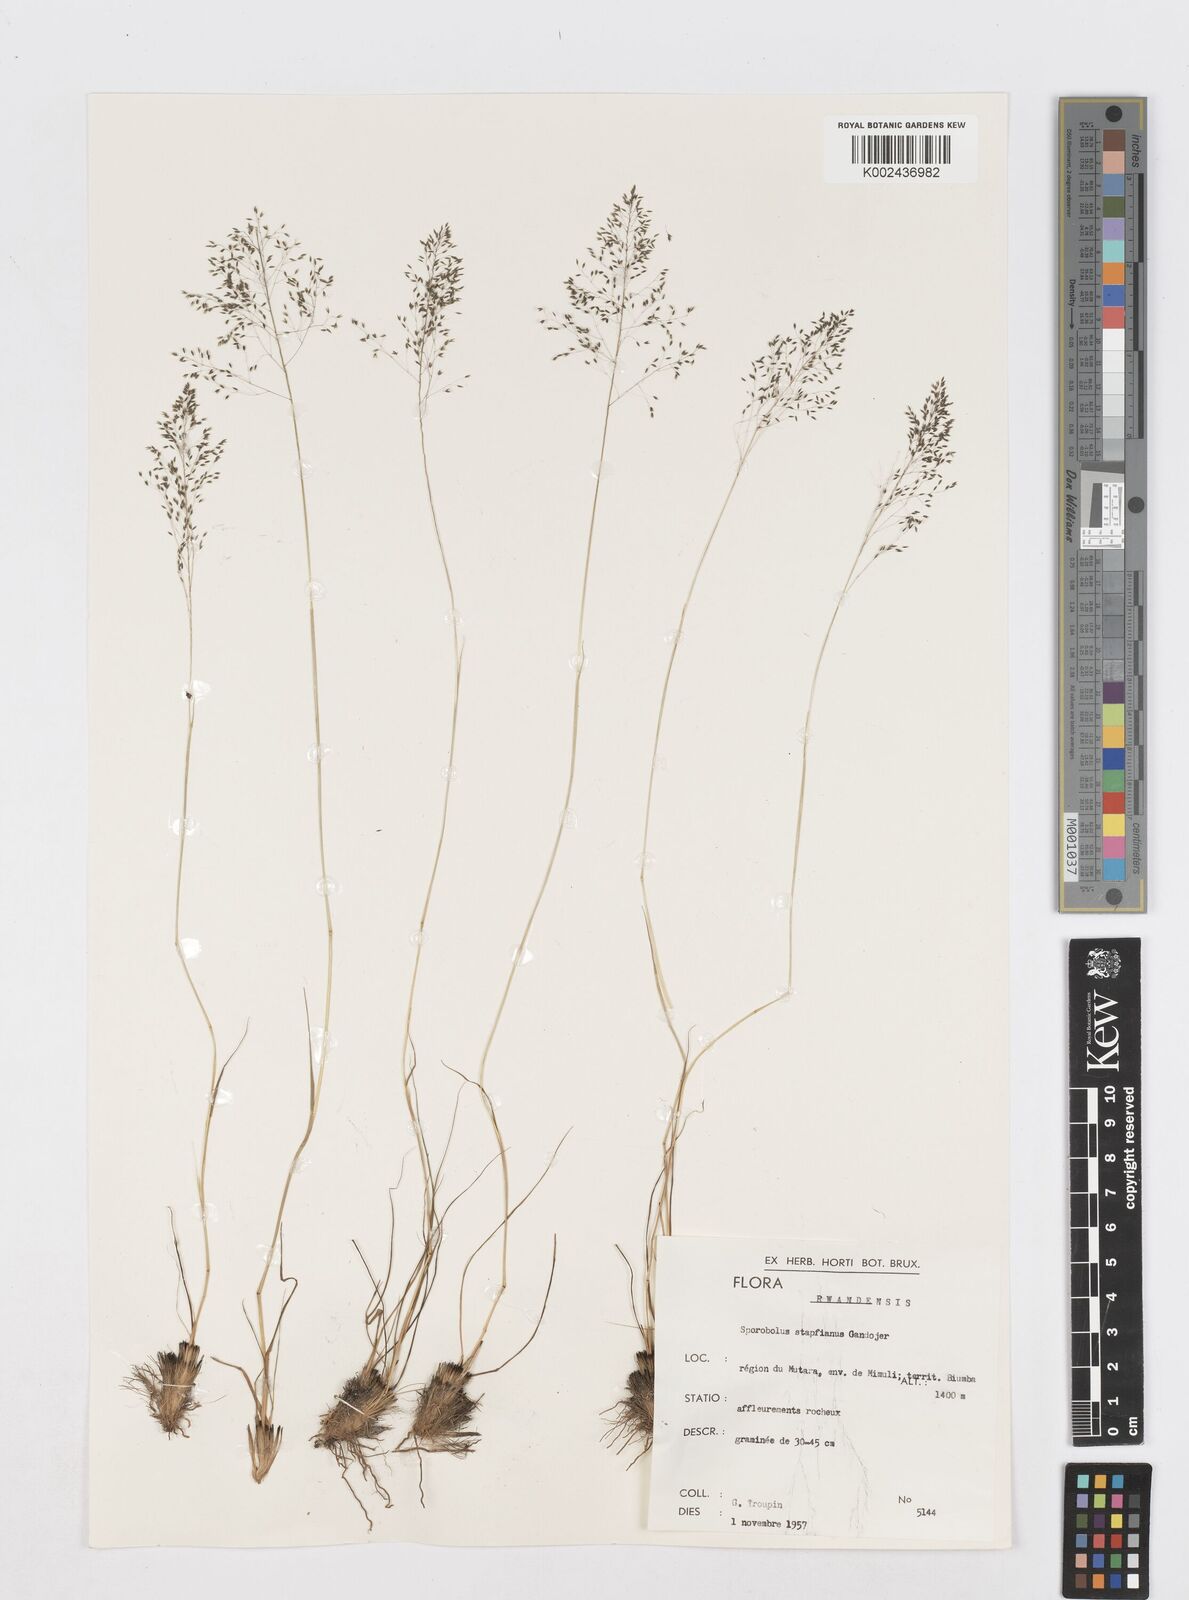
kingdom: Plantae
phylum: Tracheophyta
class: Liliopsida
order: Poales
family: Poaceae
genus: Sporobolus
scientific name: Sporobolus stapfianus
